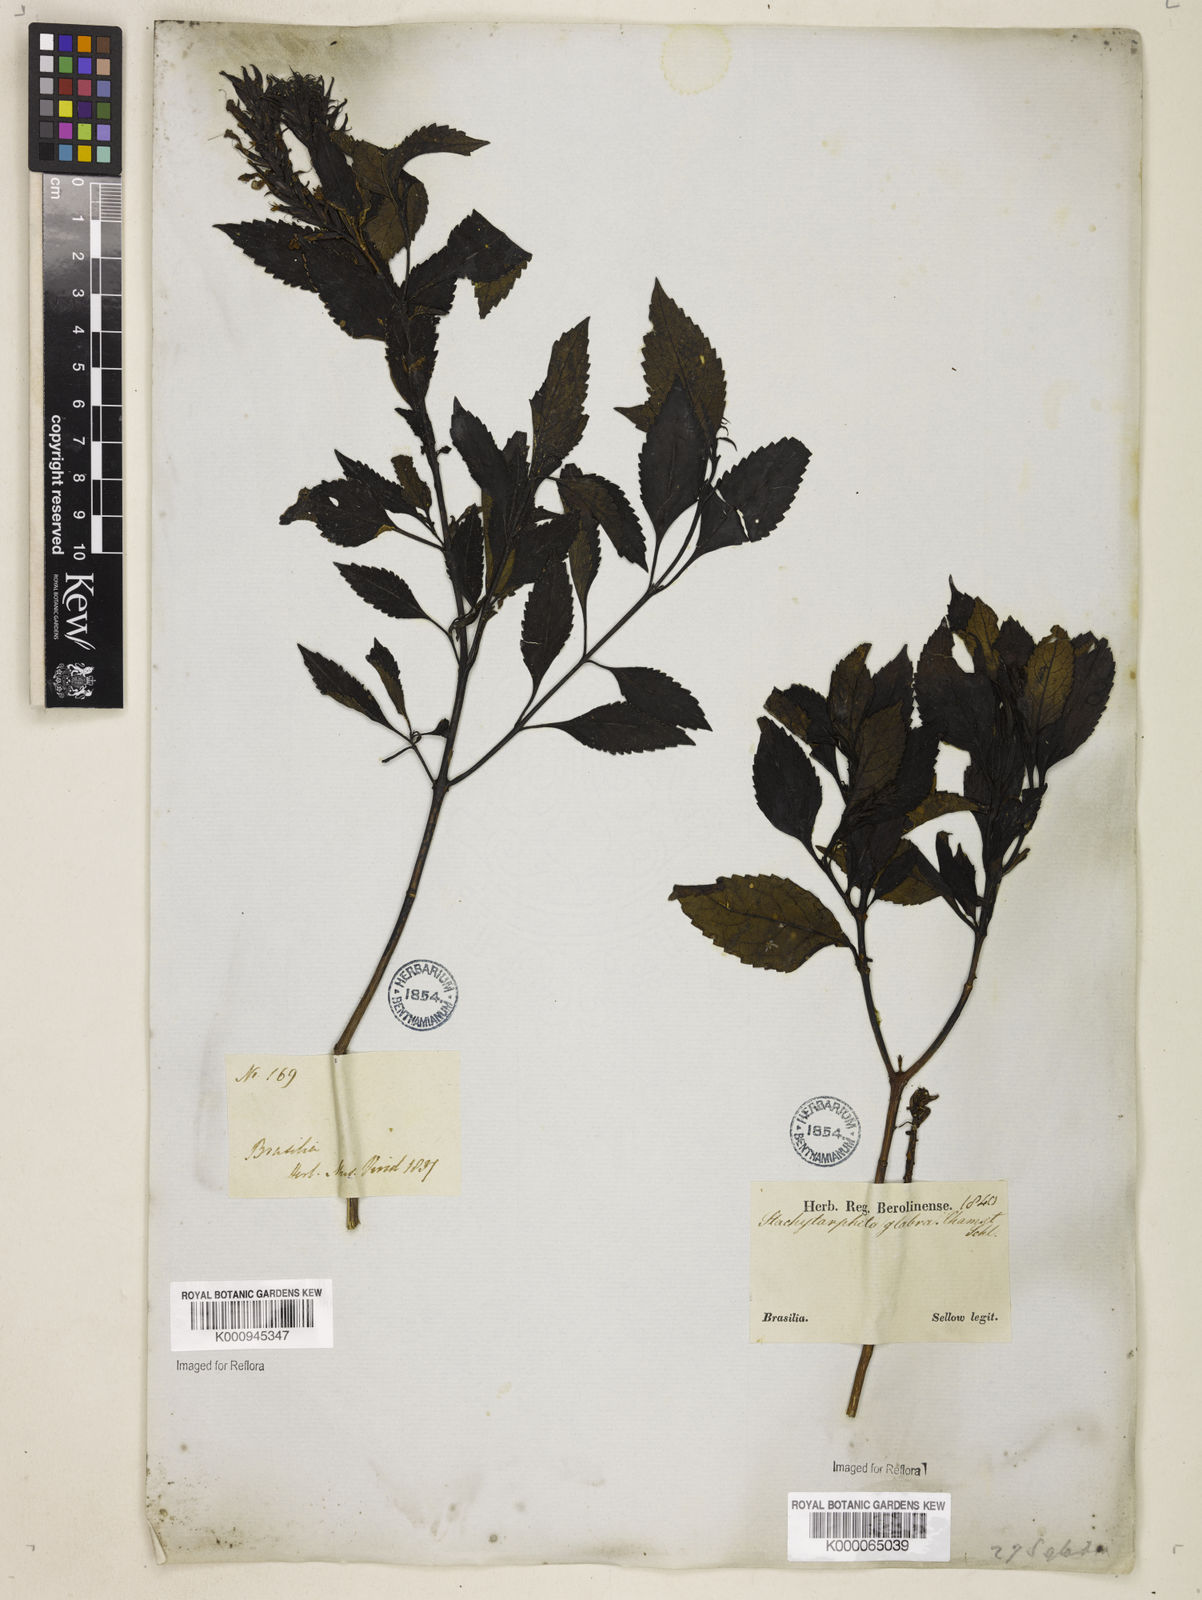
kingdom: Plantae
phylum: Tracheophyta
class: Magnoliopsida
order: Lamiales
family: Verbenaceae
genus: Stachytarpheta
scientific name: Stachytarpheta glabra
